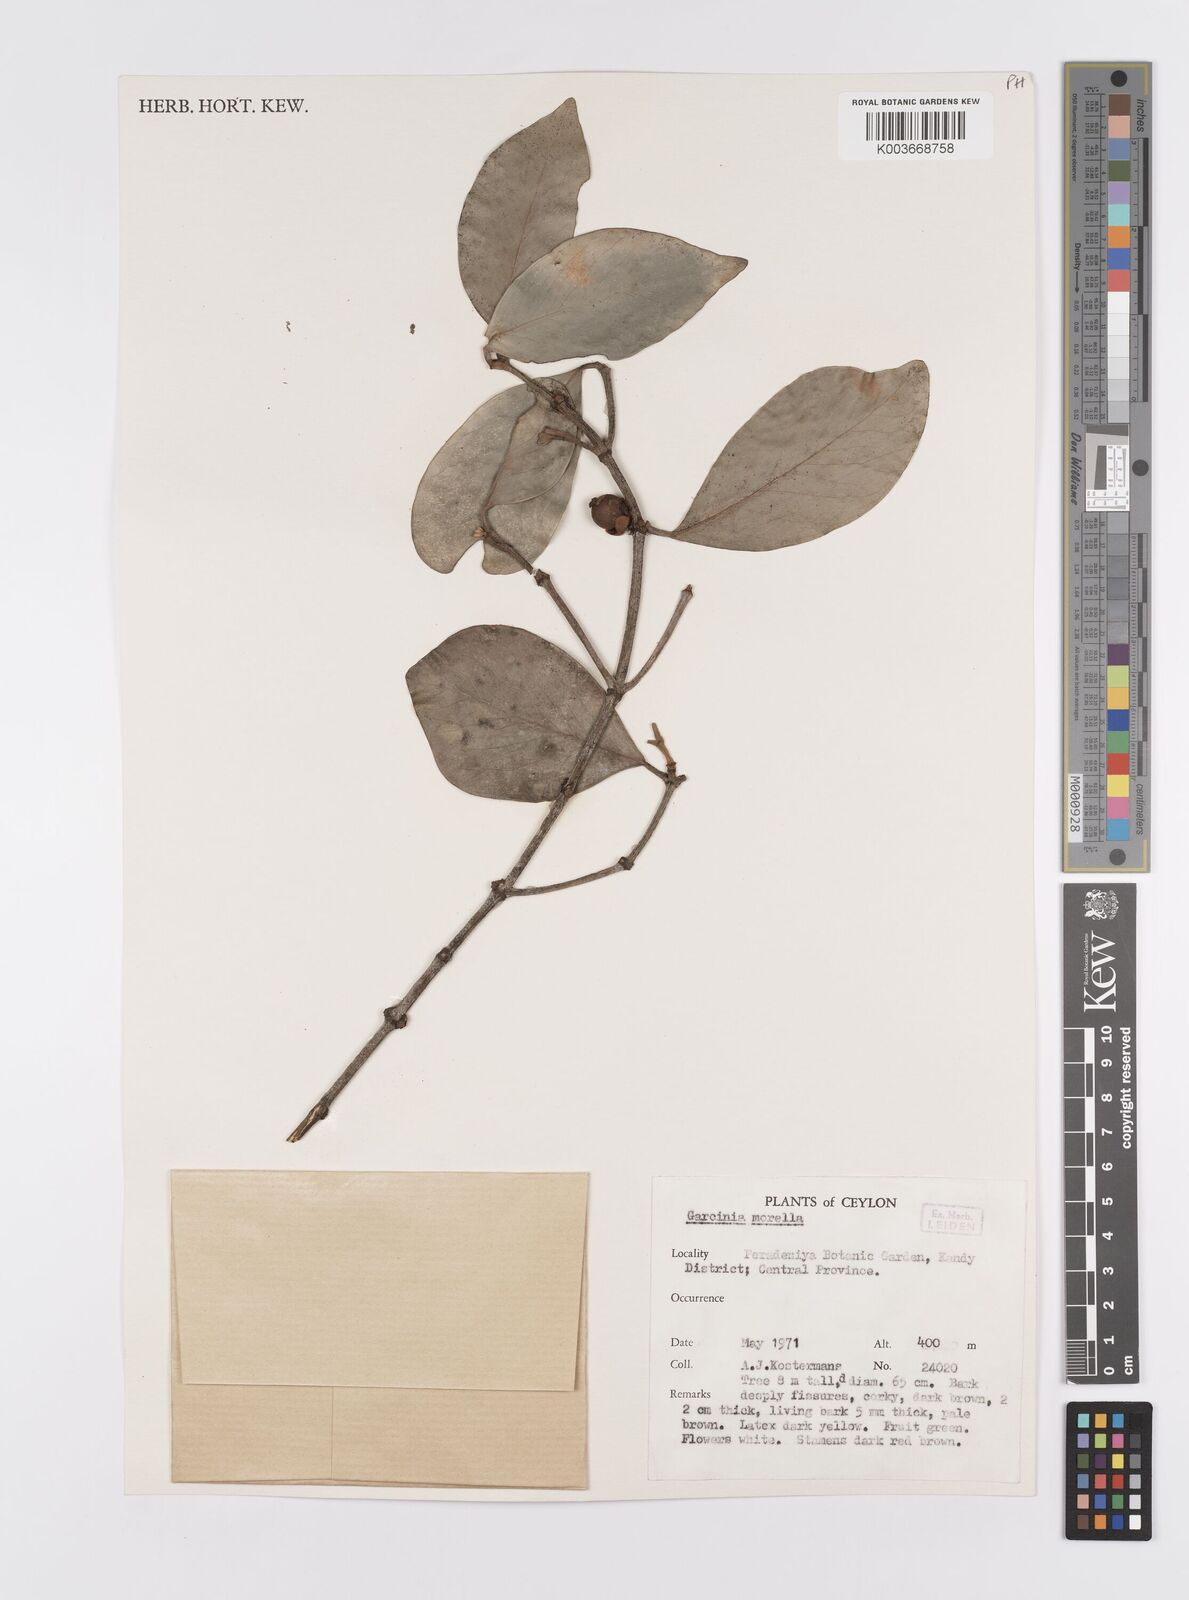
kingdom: Plantae
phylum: Tracheophyta
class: Magnoliopsida
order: Malpighiales
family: Clusiaceae
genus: Garcinia
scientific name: Garcinia morella
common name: Indian gamboge-tree
